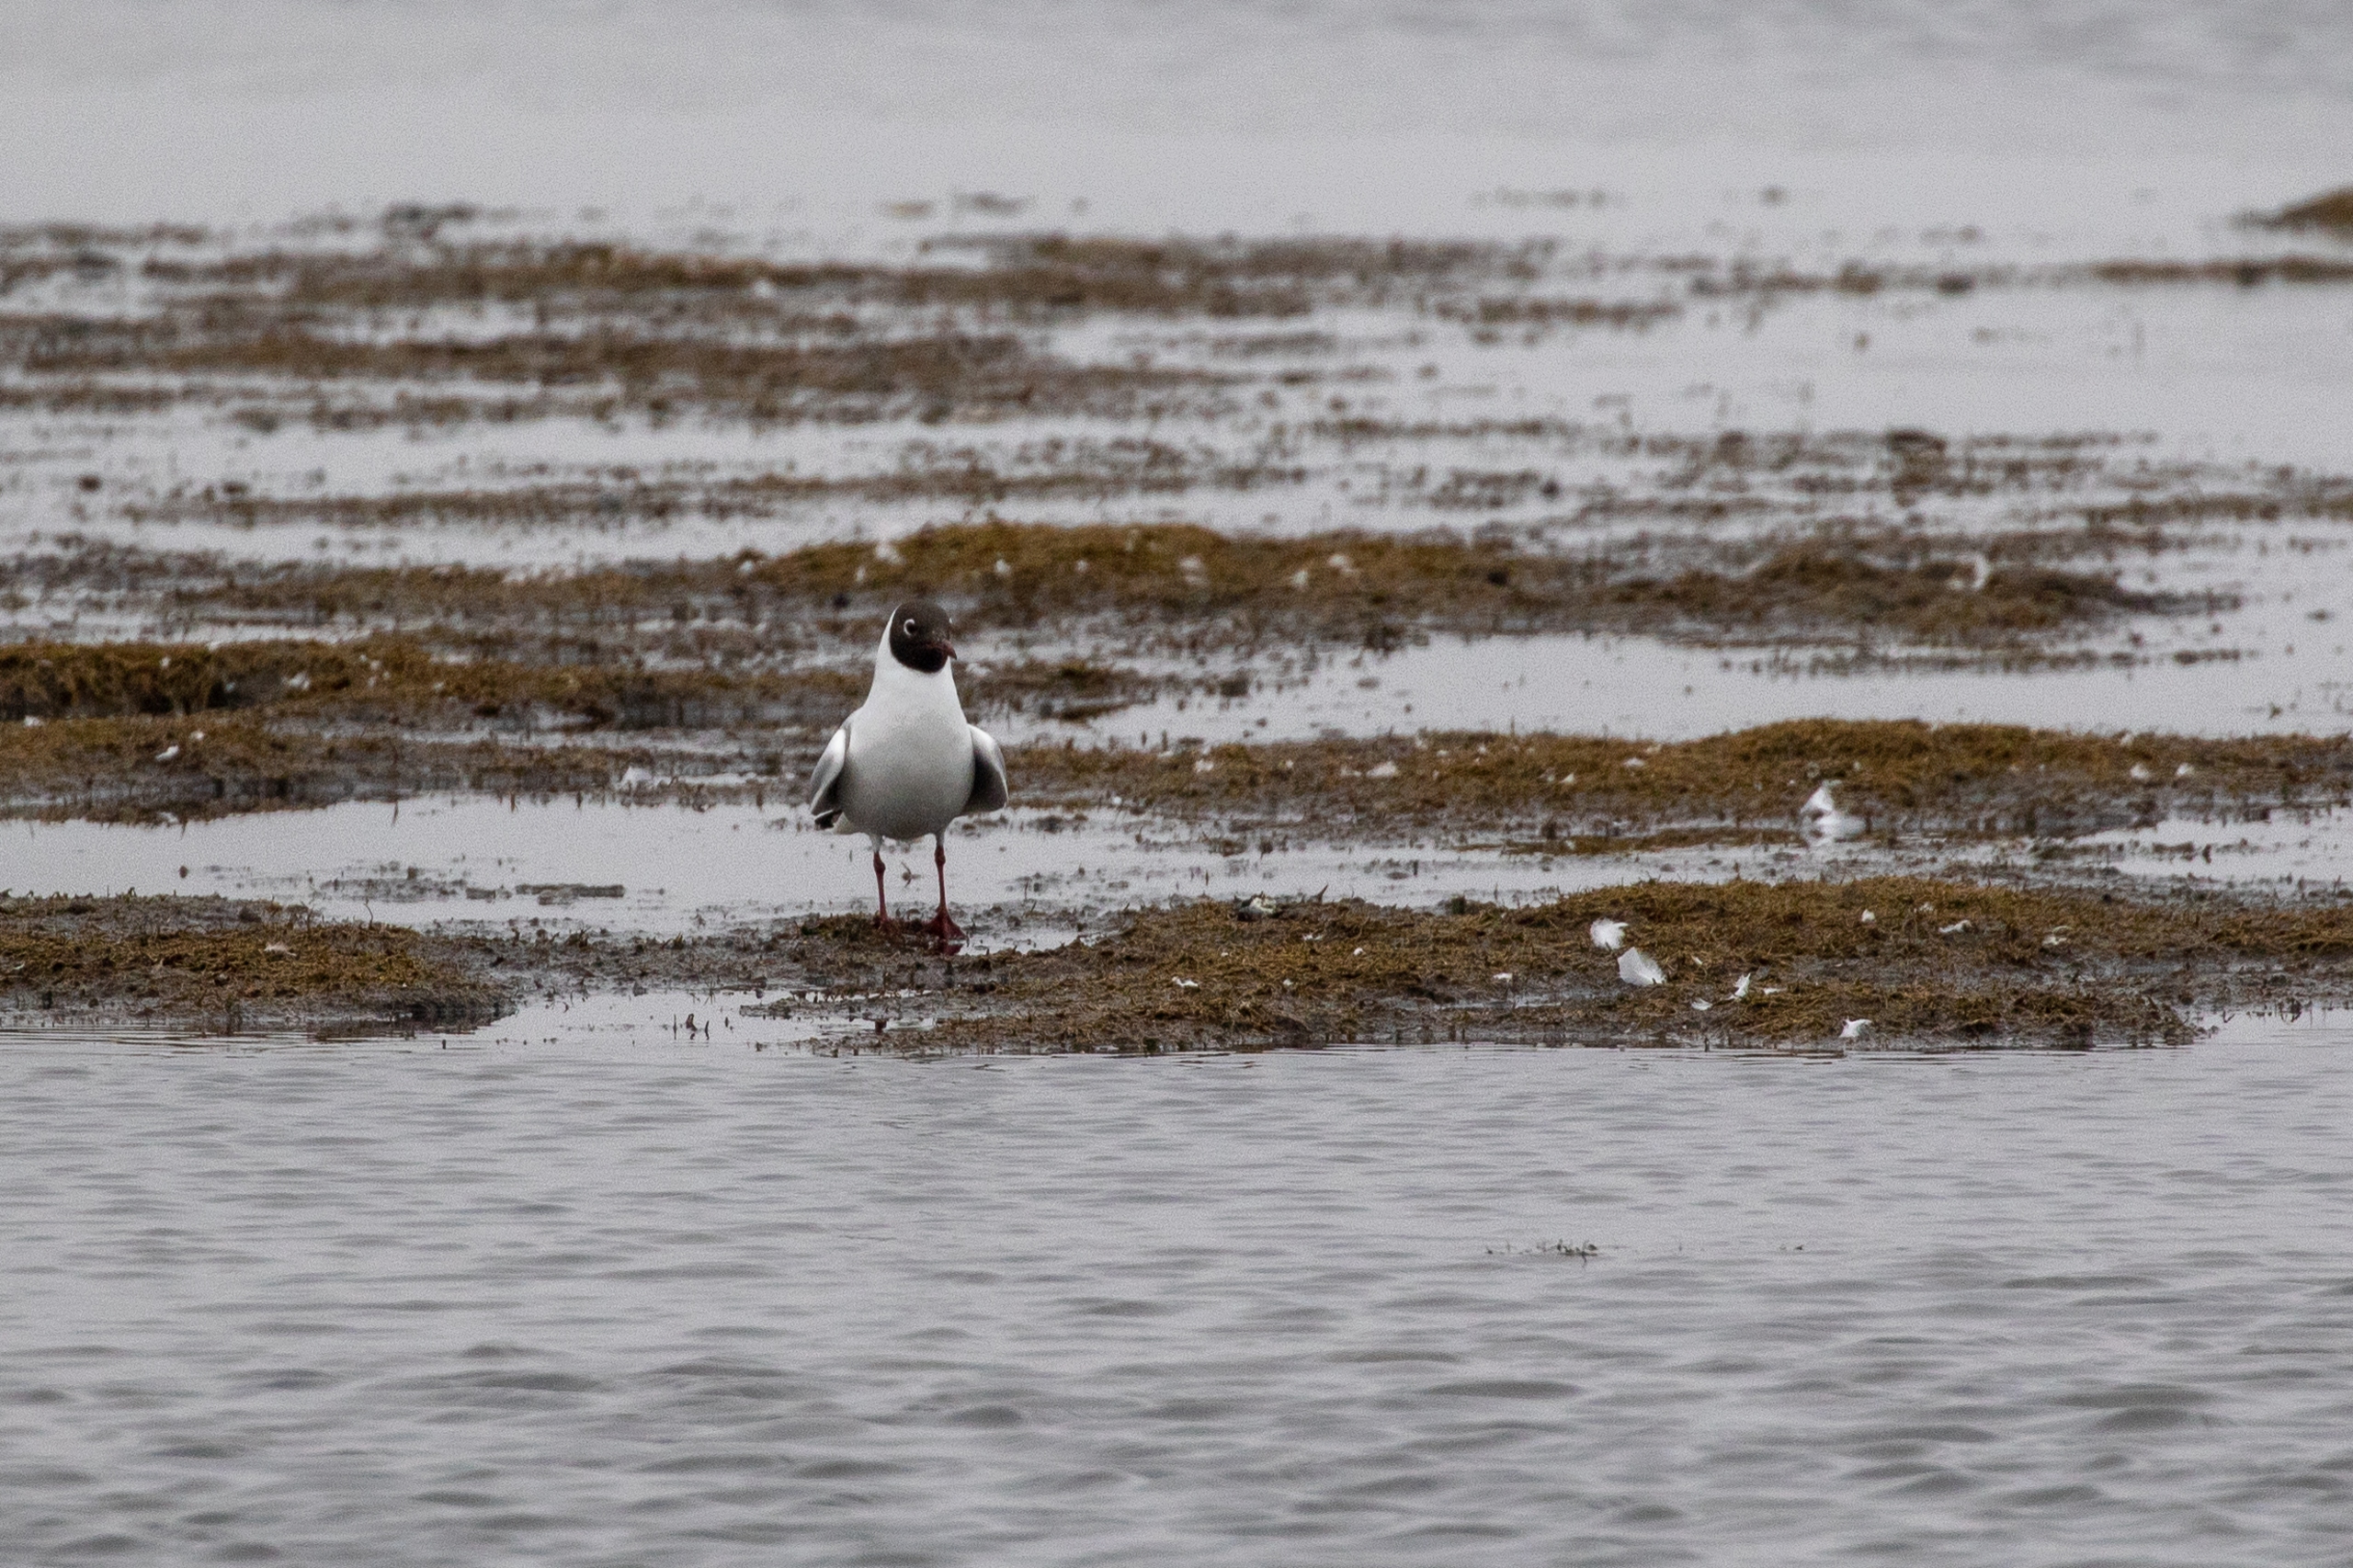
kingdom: Animalia
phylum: Chordata
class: Aves
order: Charadriiformes
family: Laridae
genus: Chroicocephalus
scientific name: Chroicocephalus ridibundus
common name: Hættemåge
